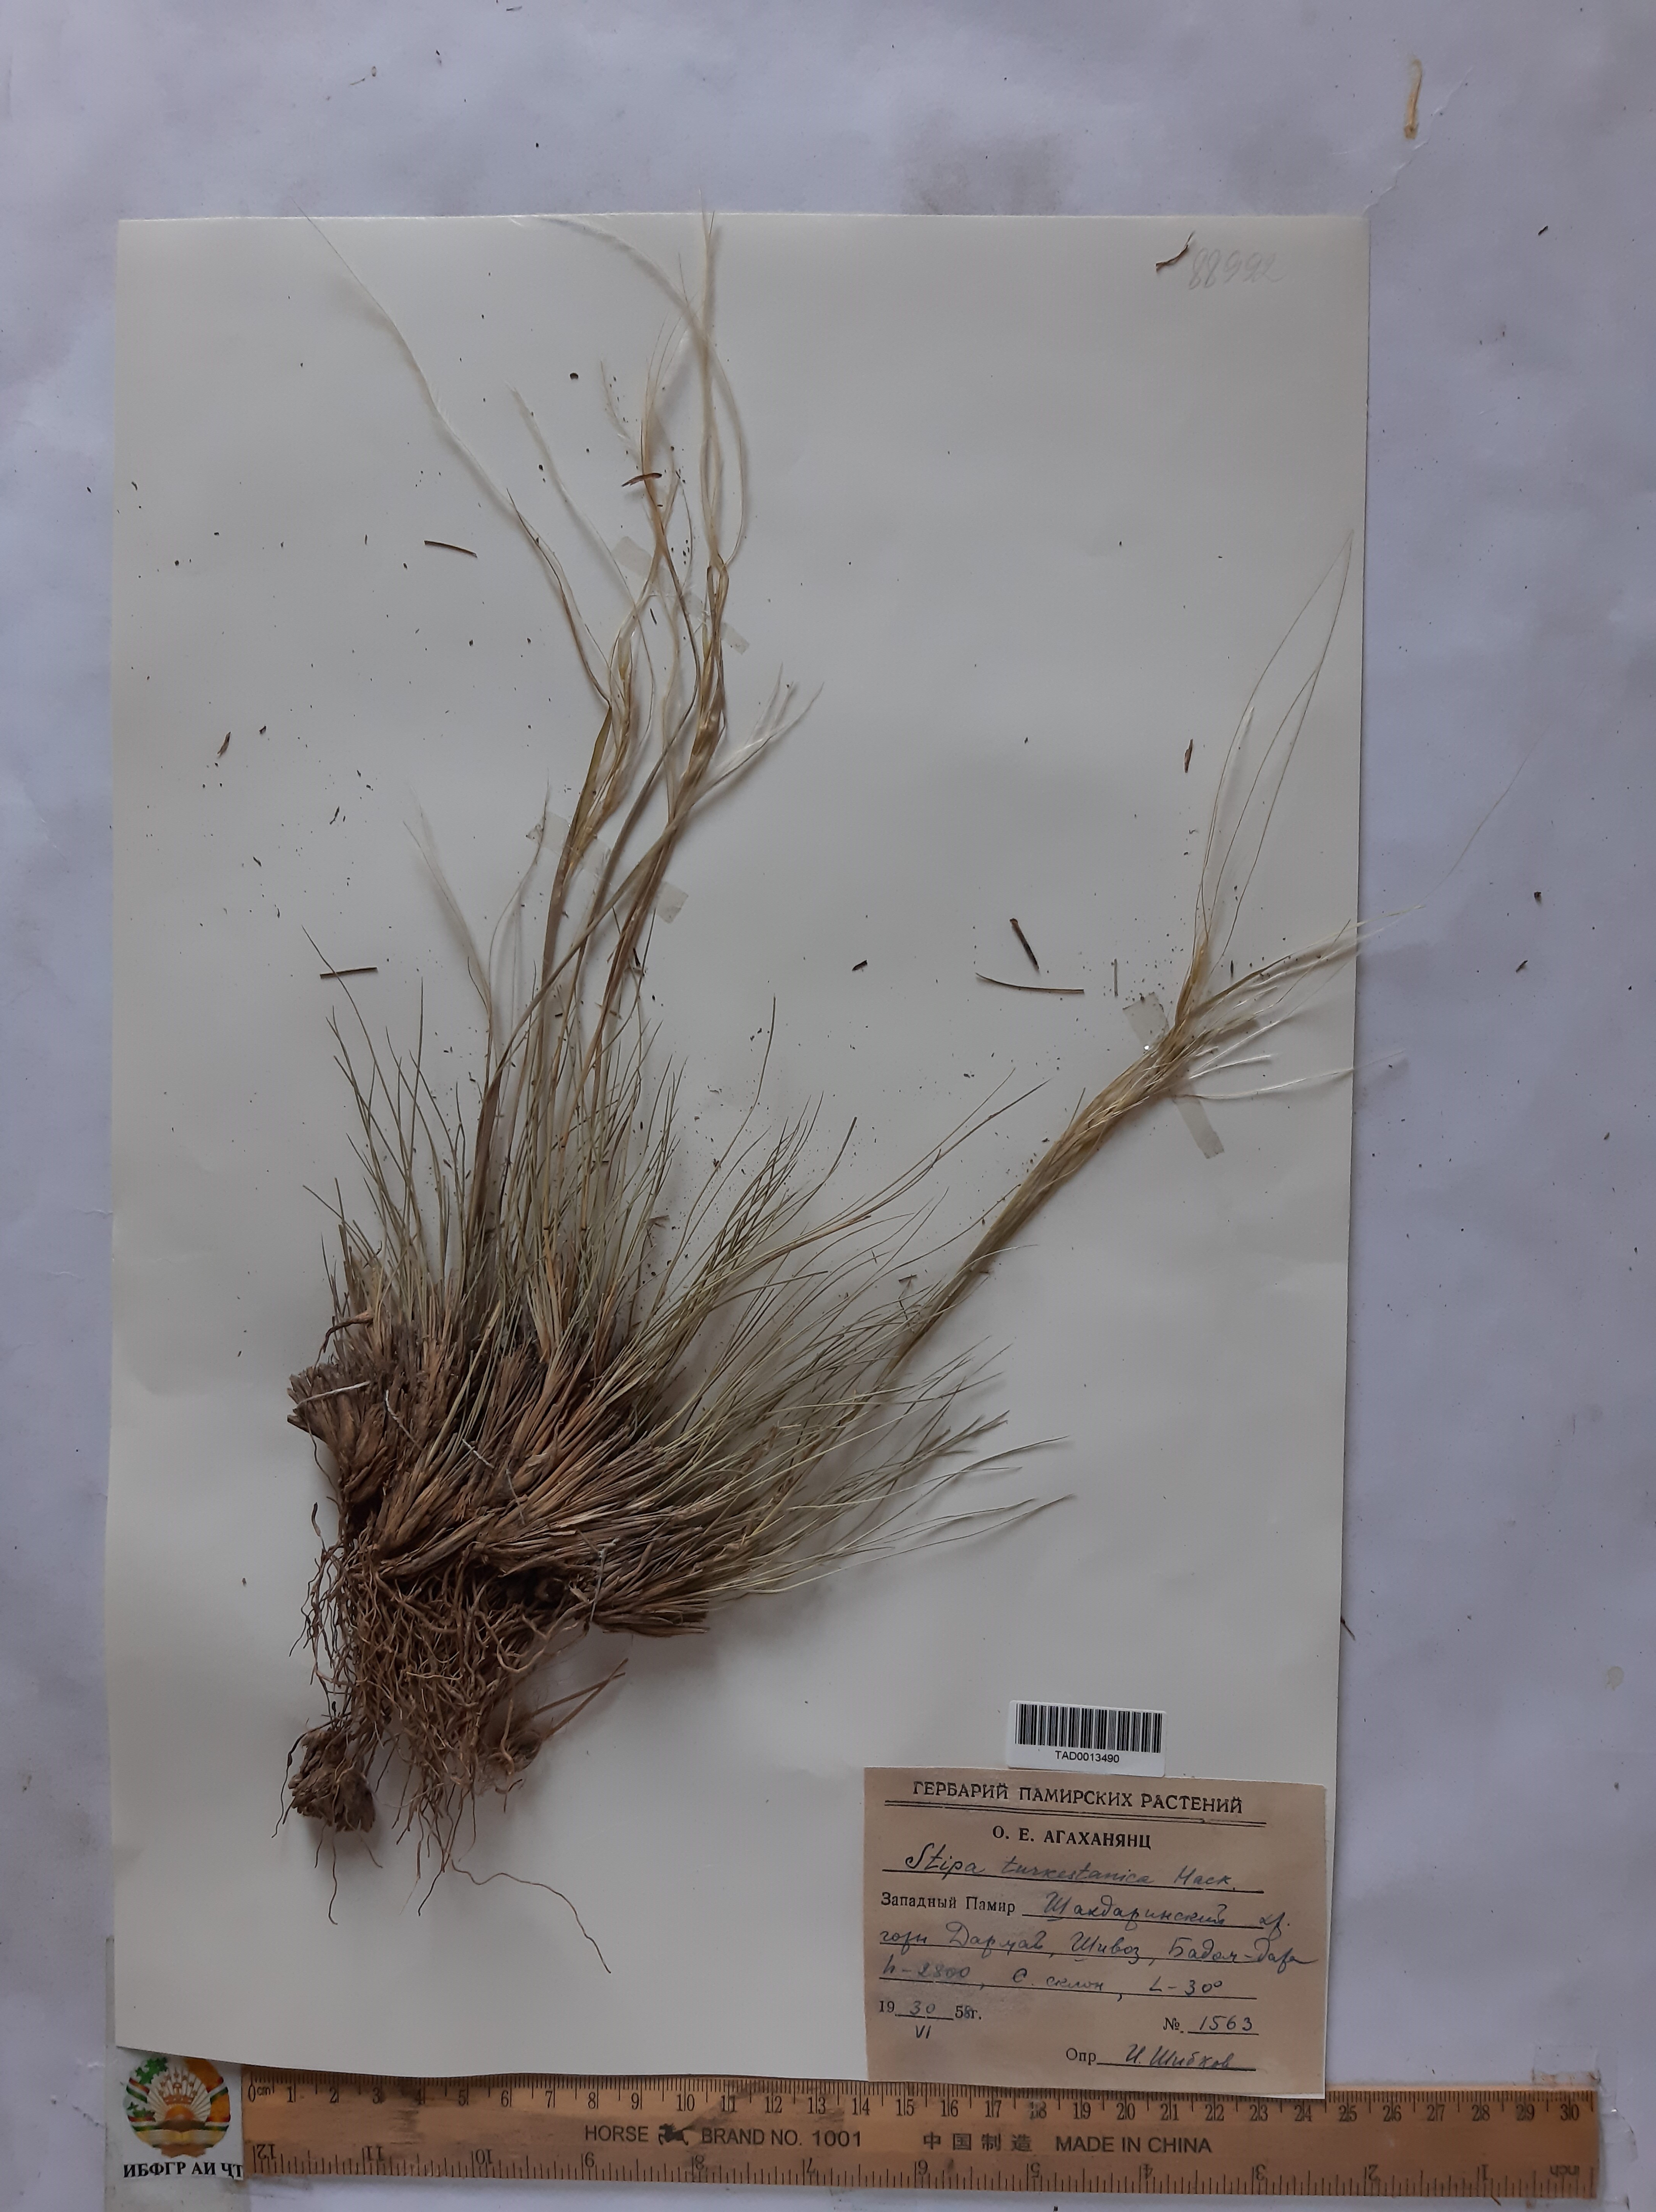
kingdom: Plantae
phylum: Tracheophyta
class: Liliopsida
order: Poales
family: Poaceae
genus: Stipa
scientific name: Stipa turkestanica
